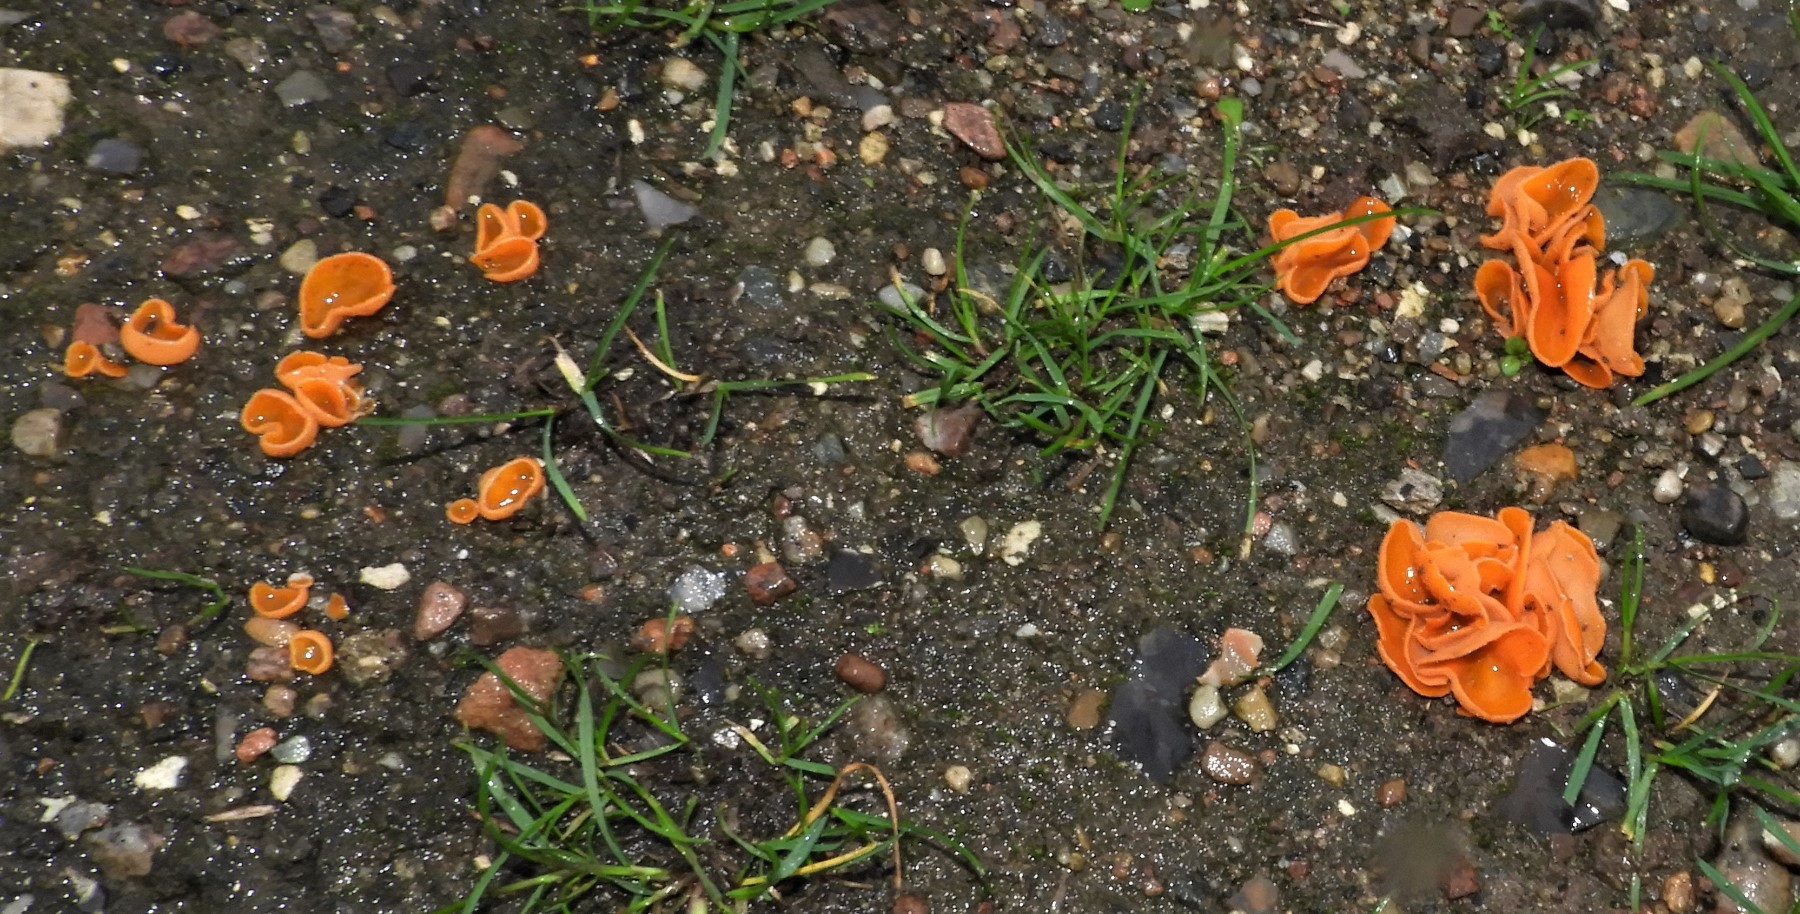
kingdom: Fungi
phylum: Ascomycota
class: Pezizomycetes
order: Pezizales
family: Pyronemataceae
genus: Aleuria
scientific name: Aleuria aurantia
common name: almindelig orangebæger
